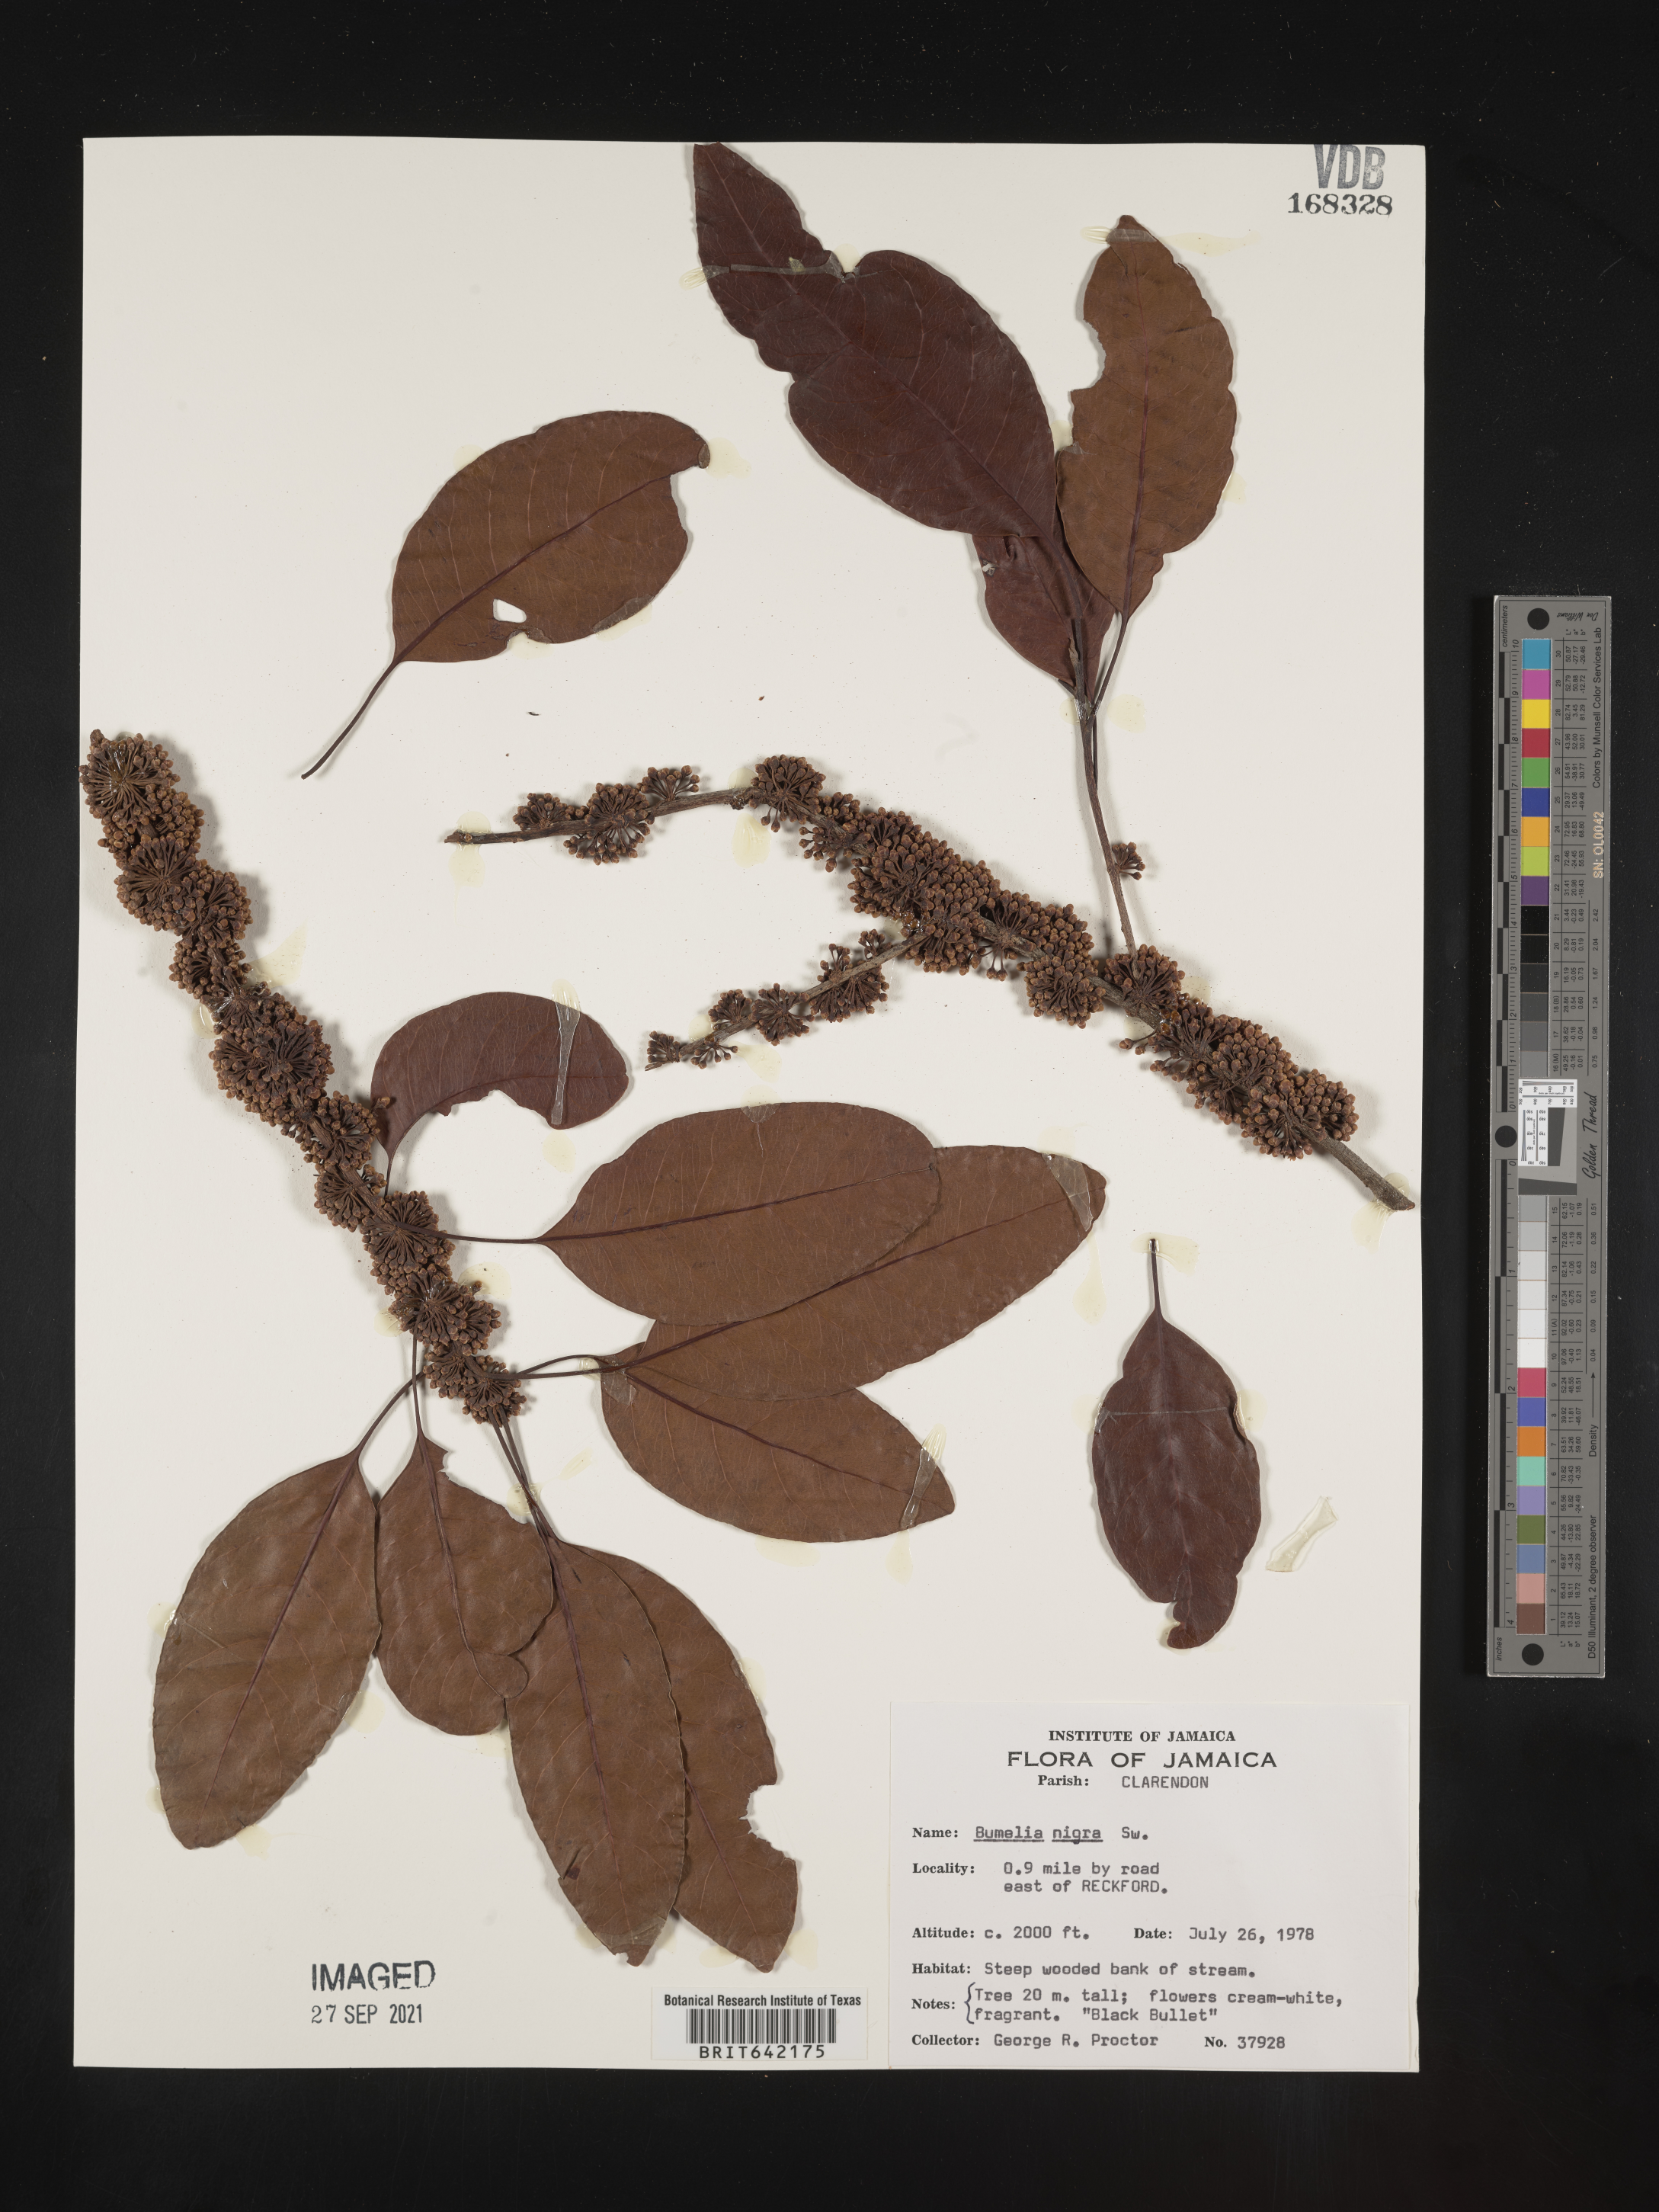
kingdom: Plantae
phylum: Tracheophyta
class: Magnoliopsida
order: Ericales
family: Sapotaceae
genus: Sideroxylon
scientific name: Sideroxylon
